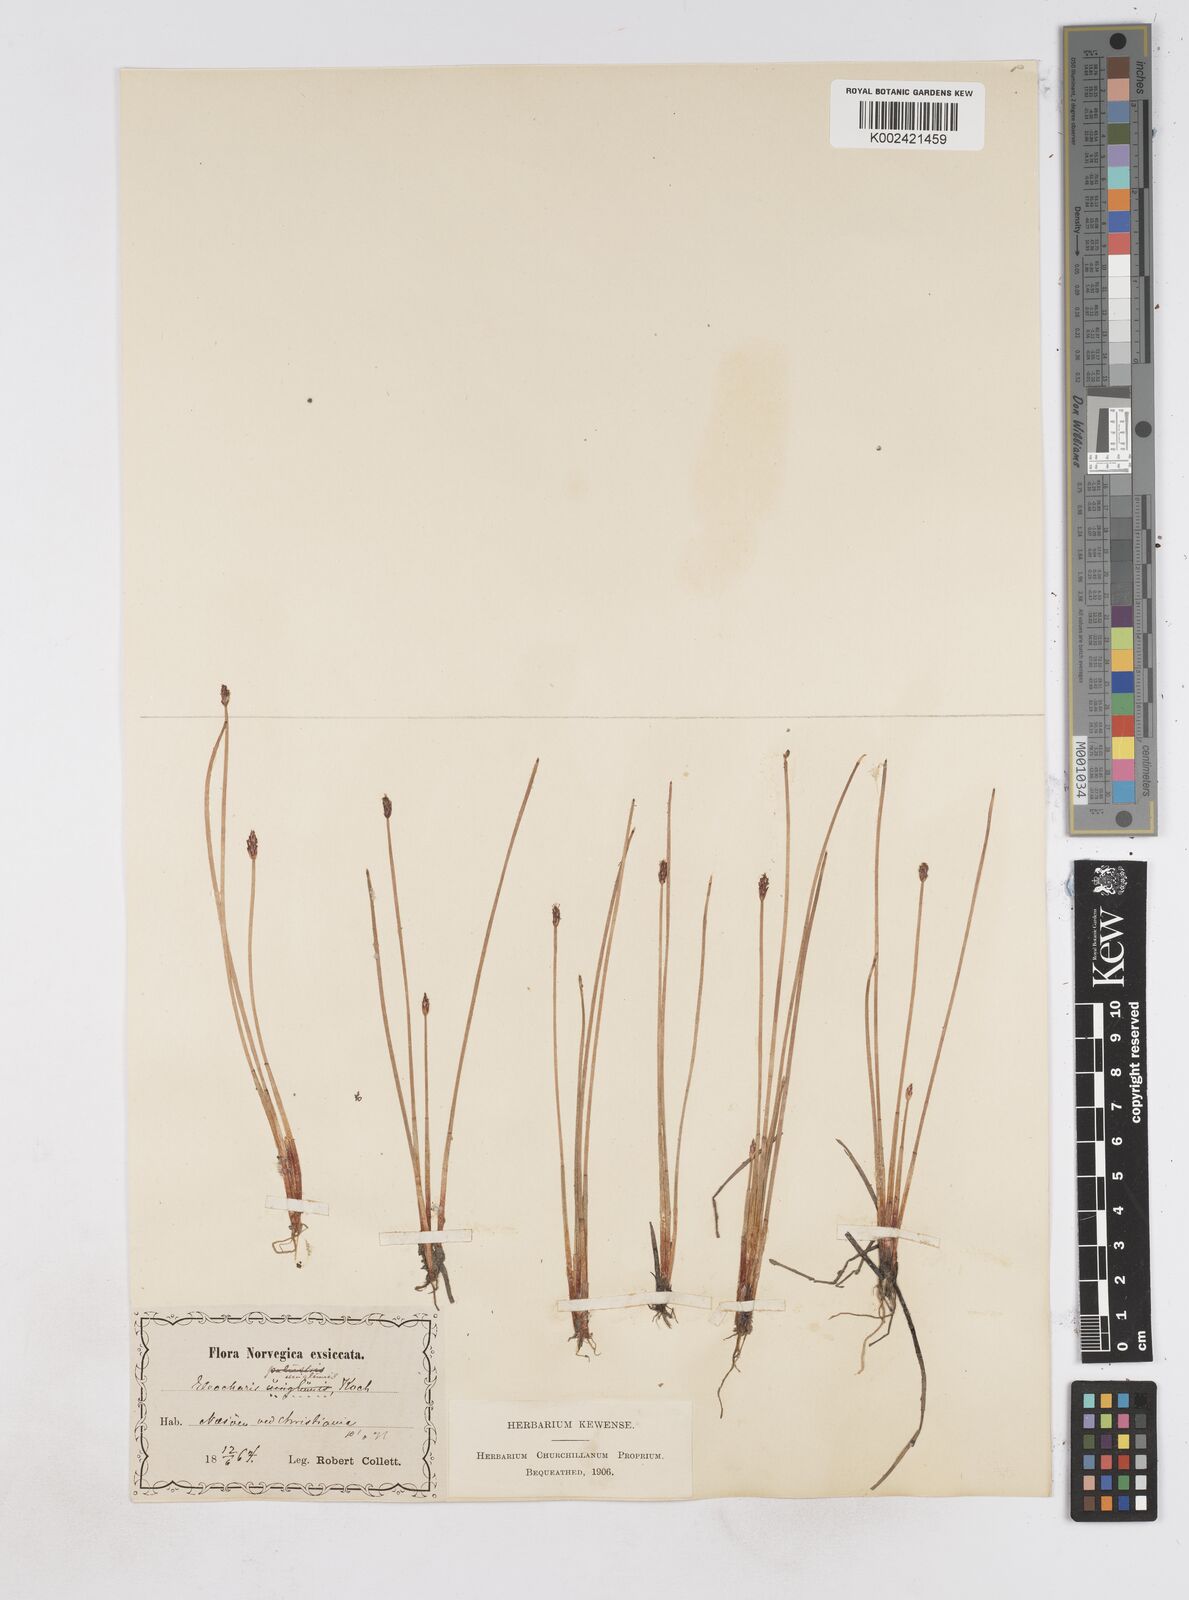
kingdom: Plantae
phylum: Tracheophyta
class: Liliopsida
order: Poales
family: Cyperaceae
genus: Eleocharis
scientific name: Eleocharis uniglumis
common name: Slender spike-rush
